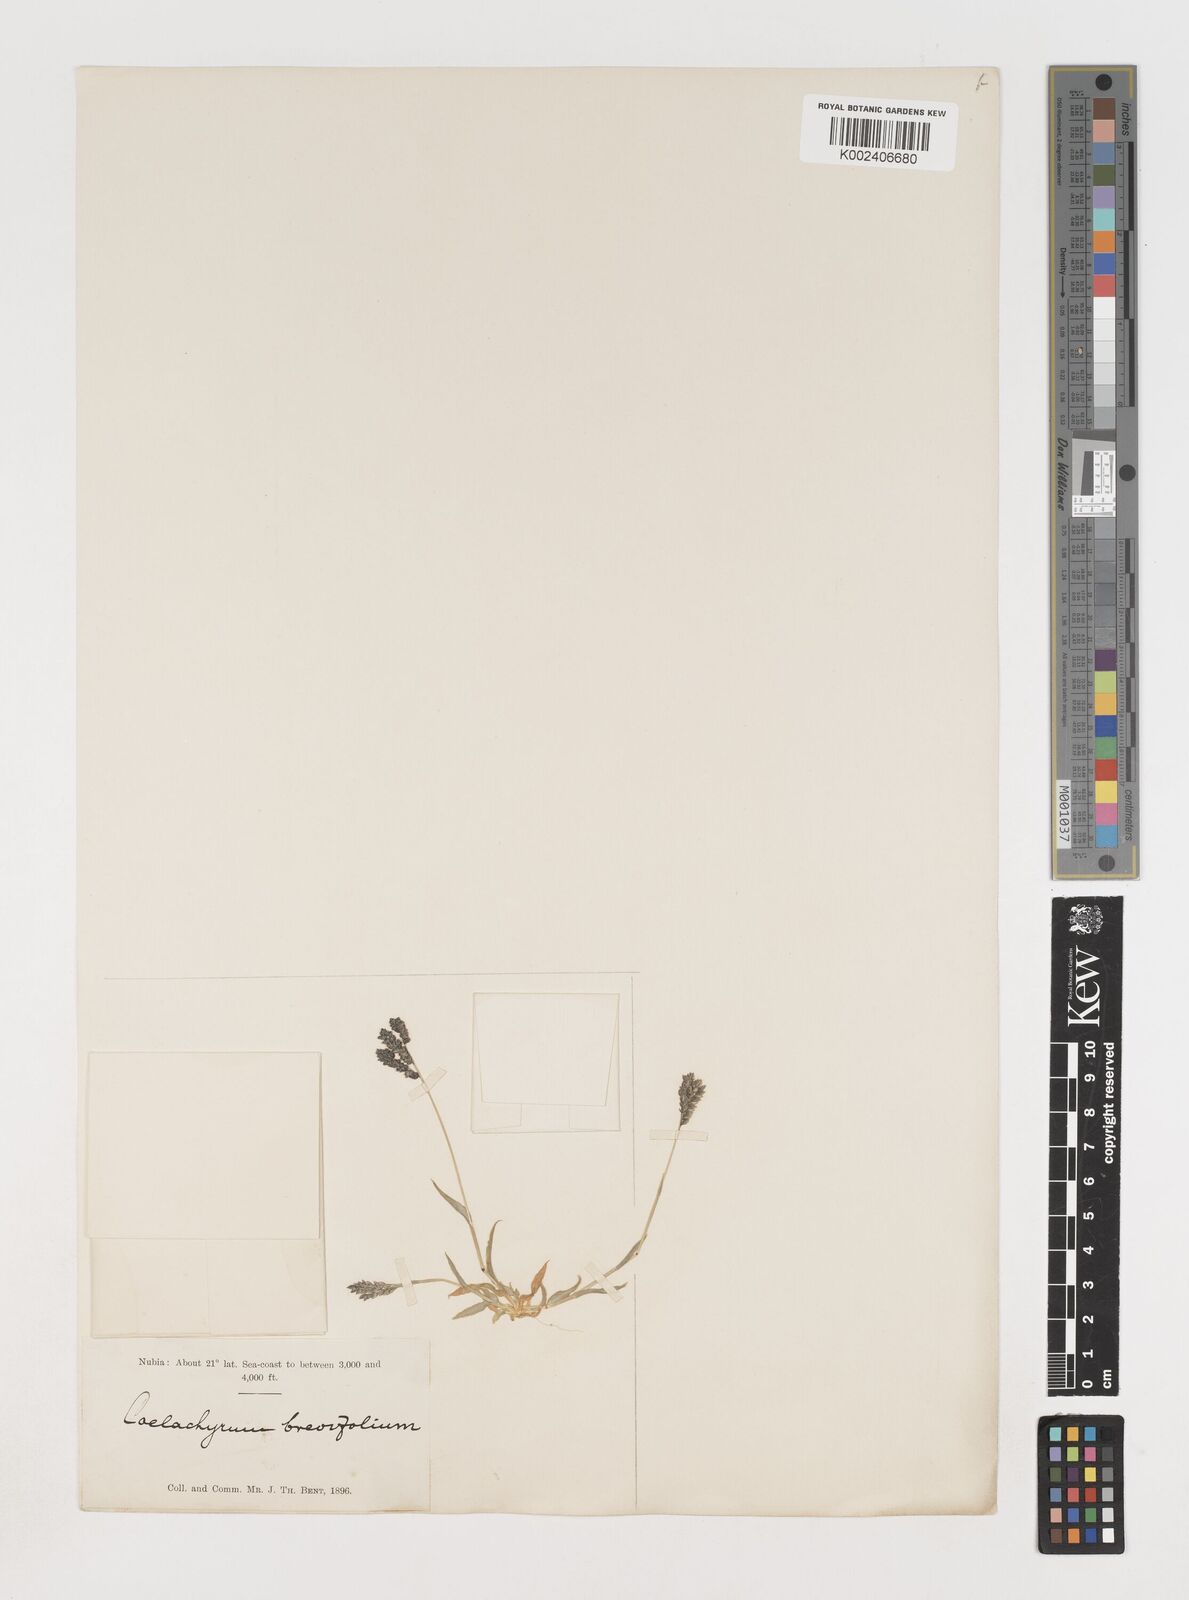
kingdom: Plantae
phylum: Tracheophyta
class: Liliopsida
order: Poales
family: Poaceae
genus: Coelachyrum
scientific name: Coelachyrum brevifolium
